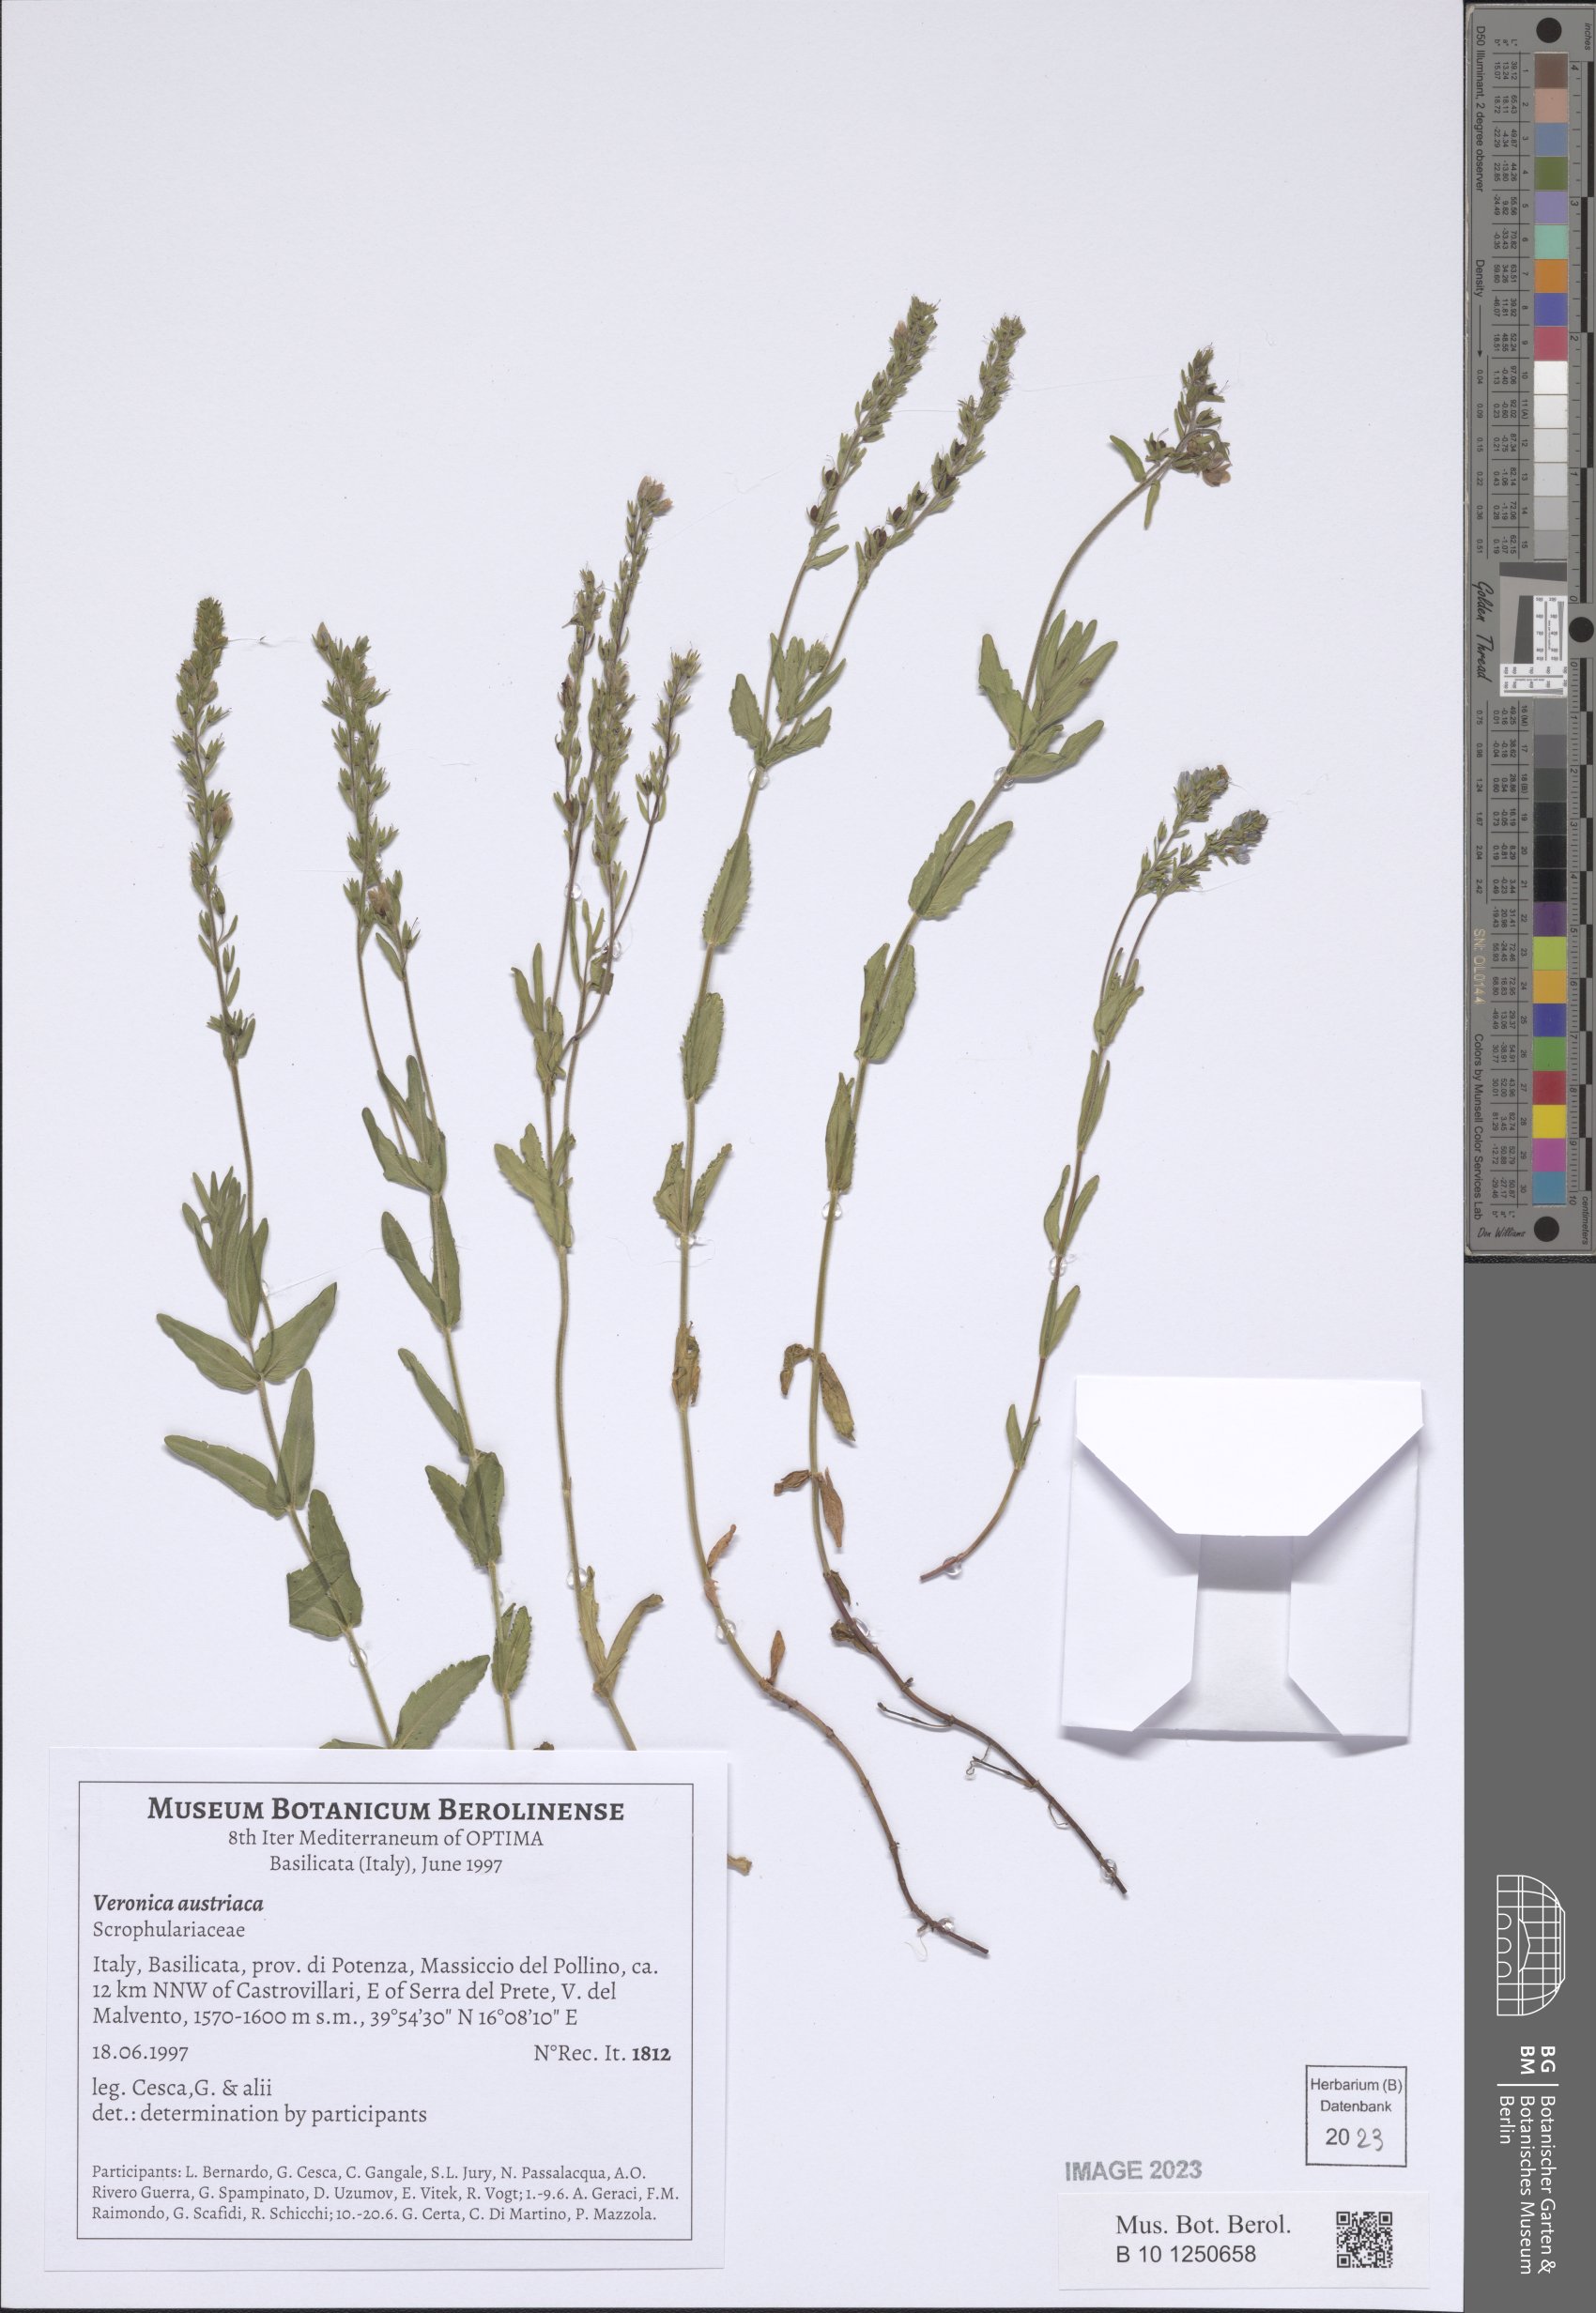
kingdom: Plantae
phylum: Tracheophyta
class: Magnoliopsida
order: Lamiales
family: Plantaginaceae
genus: Veronica
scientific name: Veronica austriaca
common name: Large speedwell
